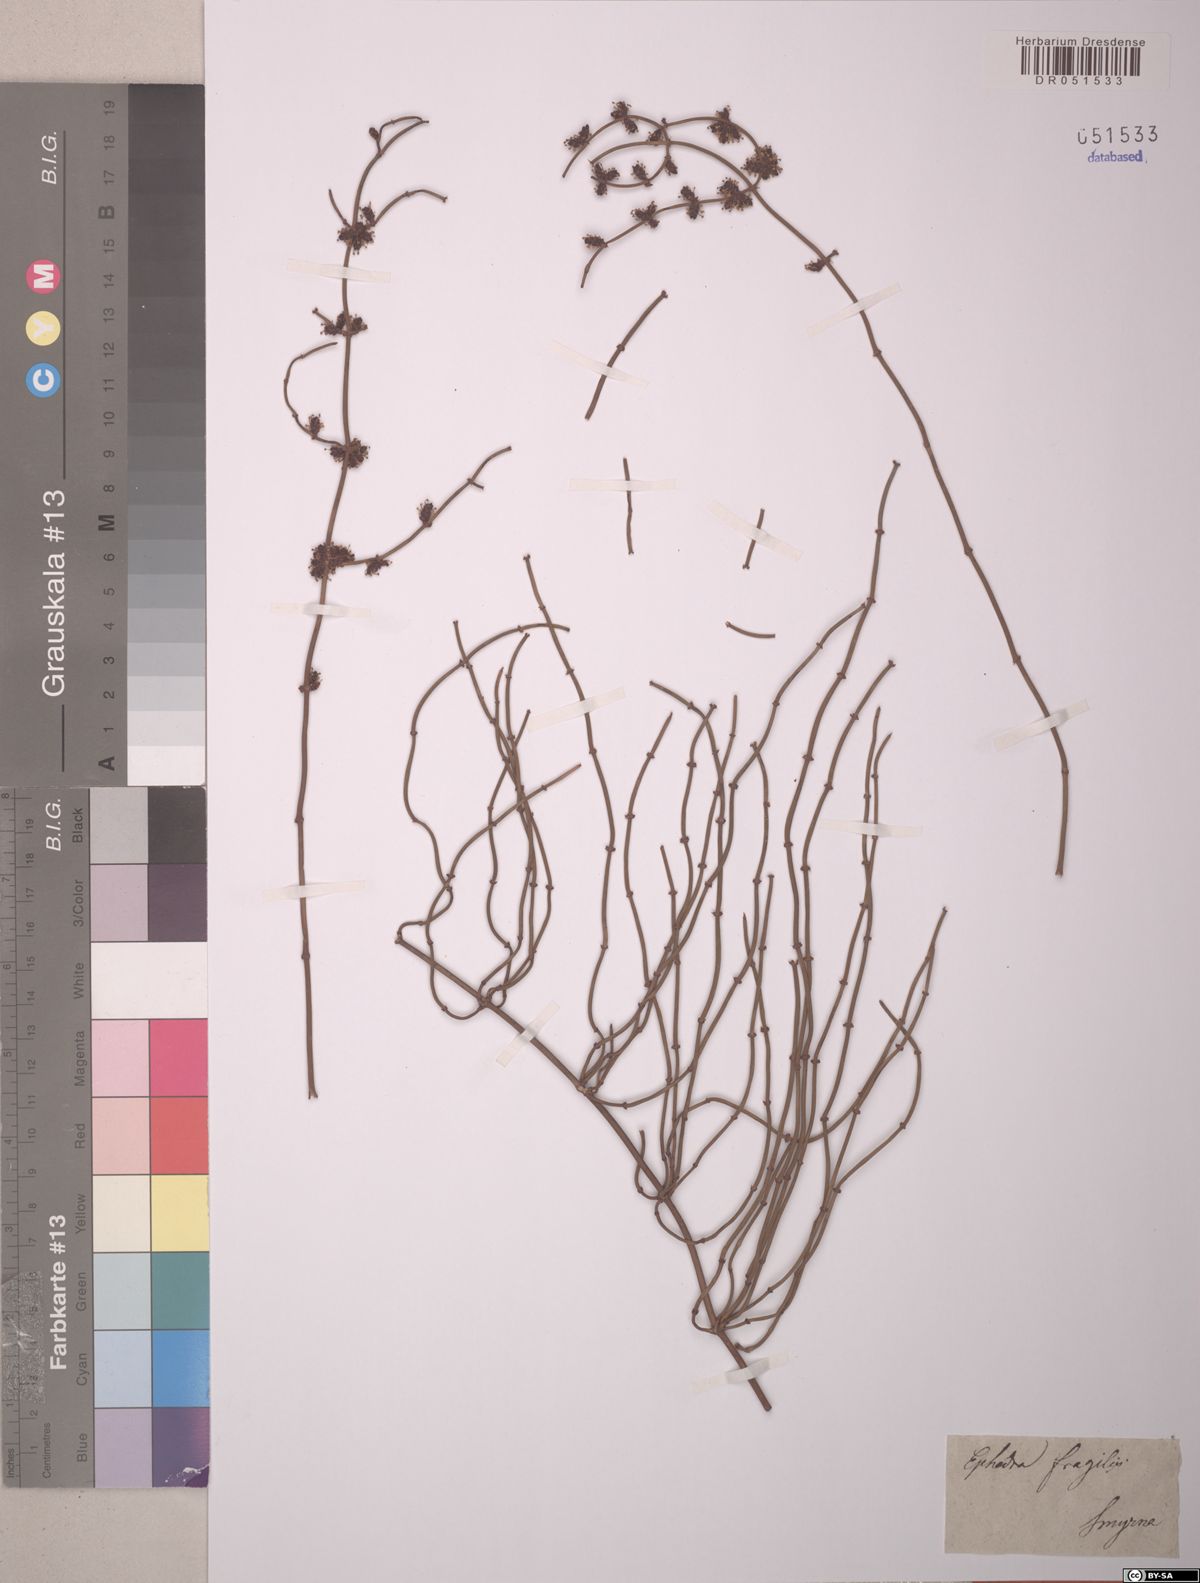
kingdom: Plantae
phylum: Tracheophyta
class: Gnetopsida
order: Ephedrales
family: Ephedraceae
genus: Ephedra
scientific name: Ephedra fragilis
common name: Joint pine
